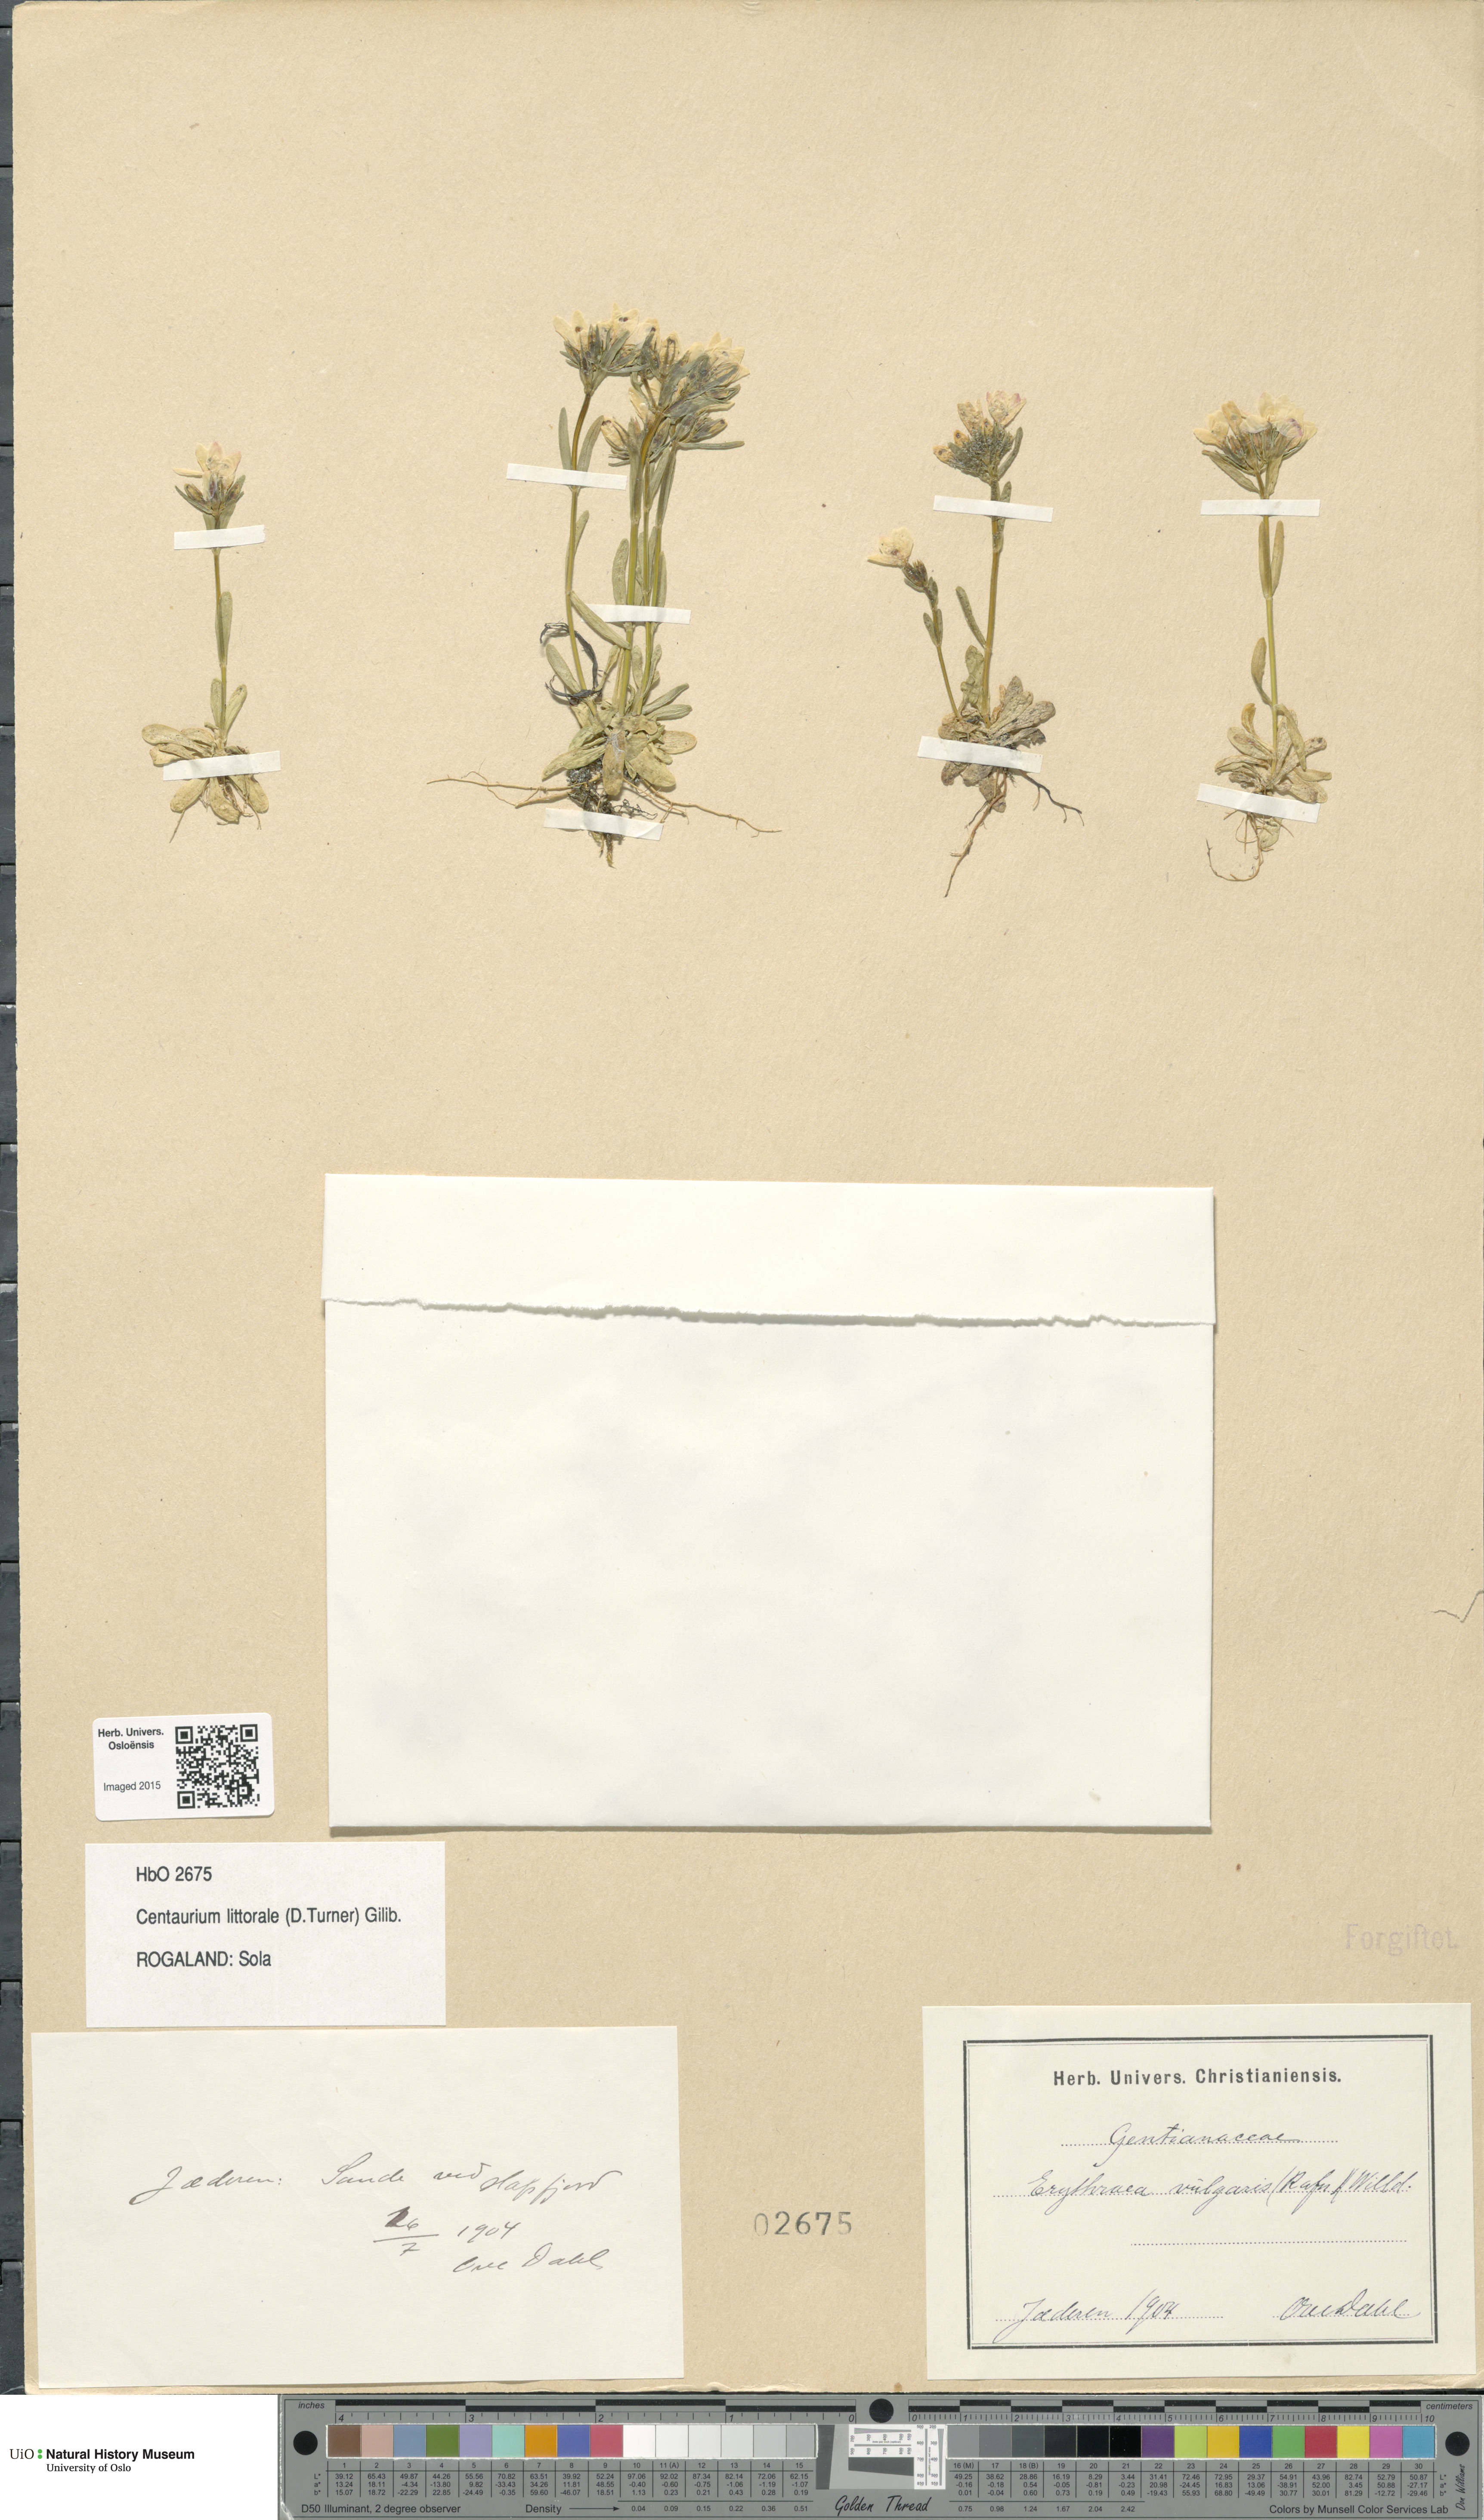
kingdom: Plantae
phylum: Tracheophyta
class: Magnoliopsida
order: Gentianales
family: Gentianaceae
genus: Centaurium
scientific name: Centaurium littorale
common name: Seaside centaury
